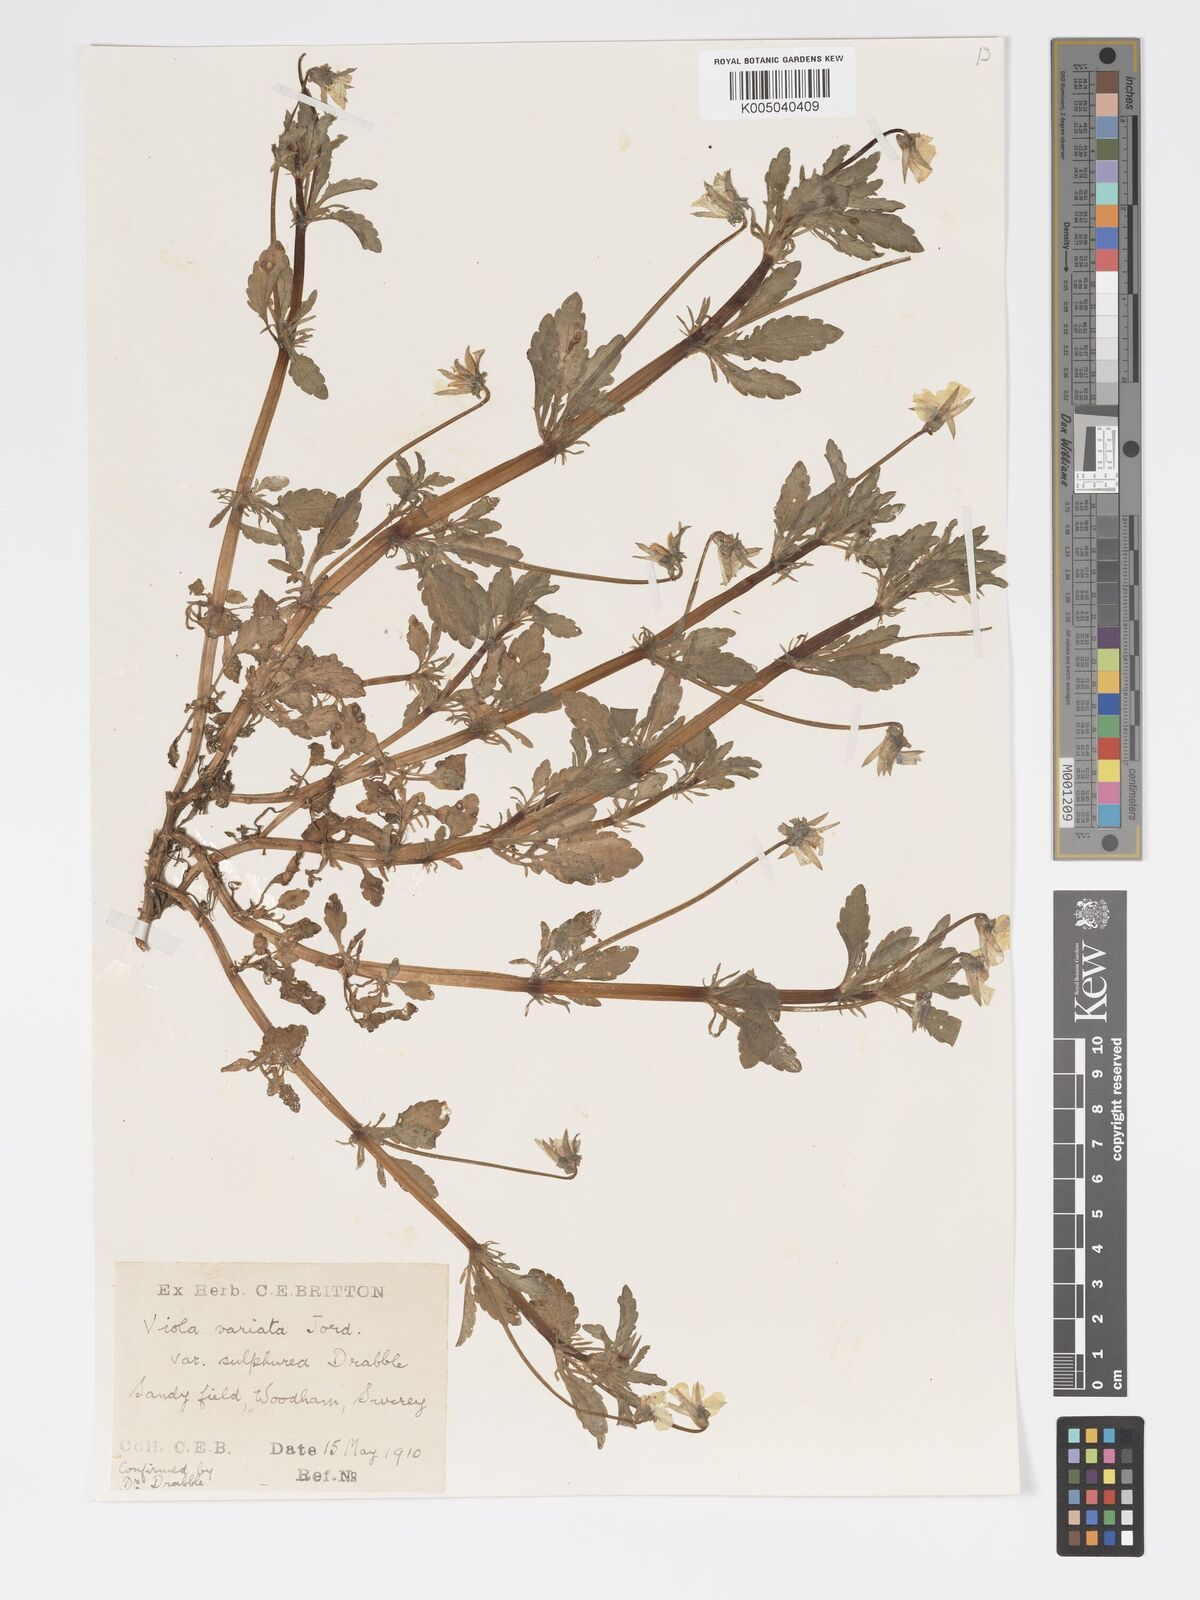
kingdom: Plantae
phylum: Tracheophyta
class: Magnoliopsida
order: Malpighiales
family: Violaceae
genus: Viola
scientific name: Viola arvensis
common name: Field pansy
